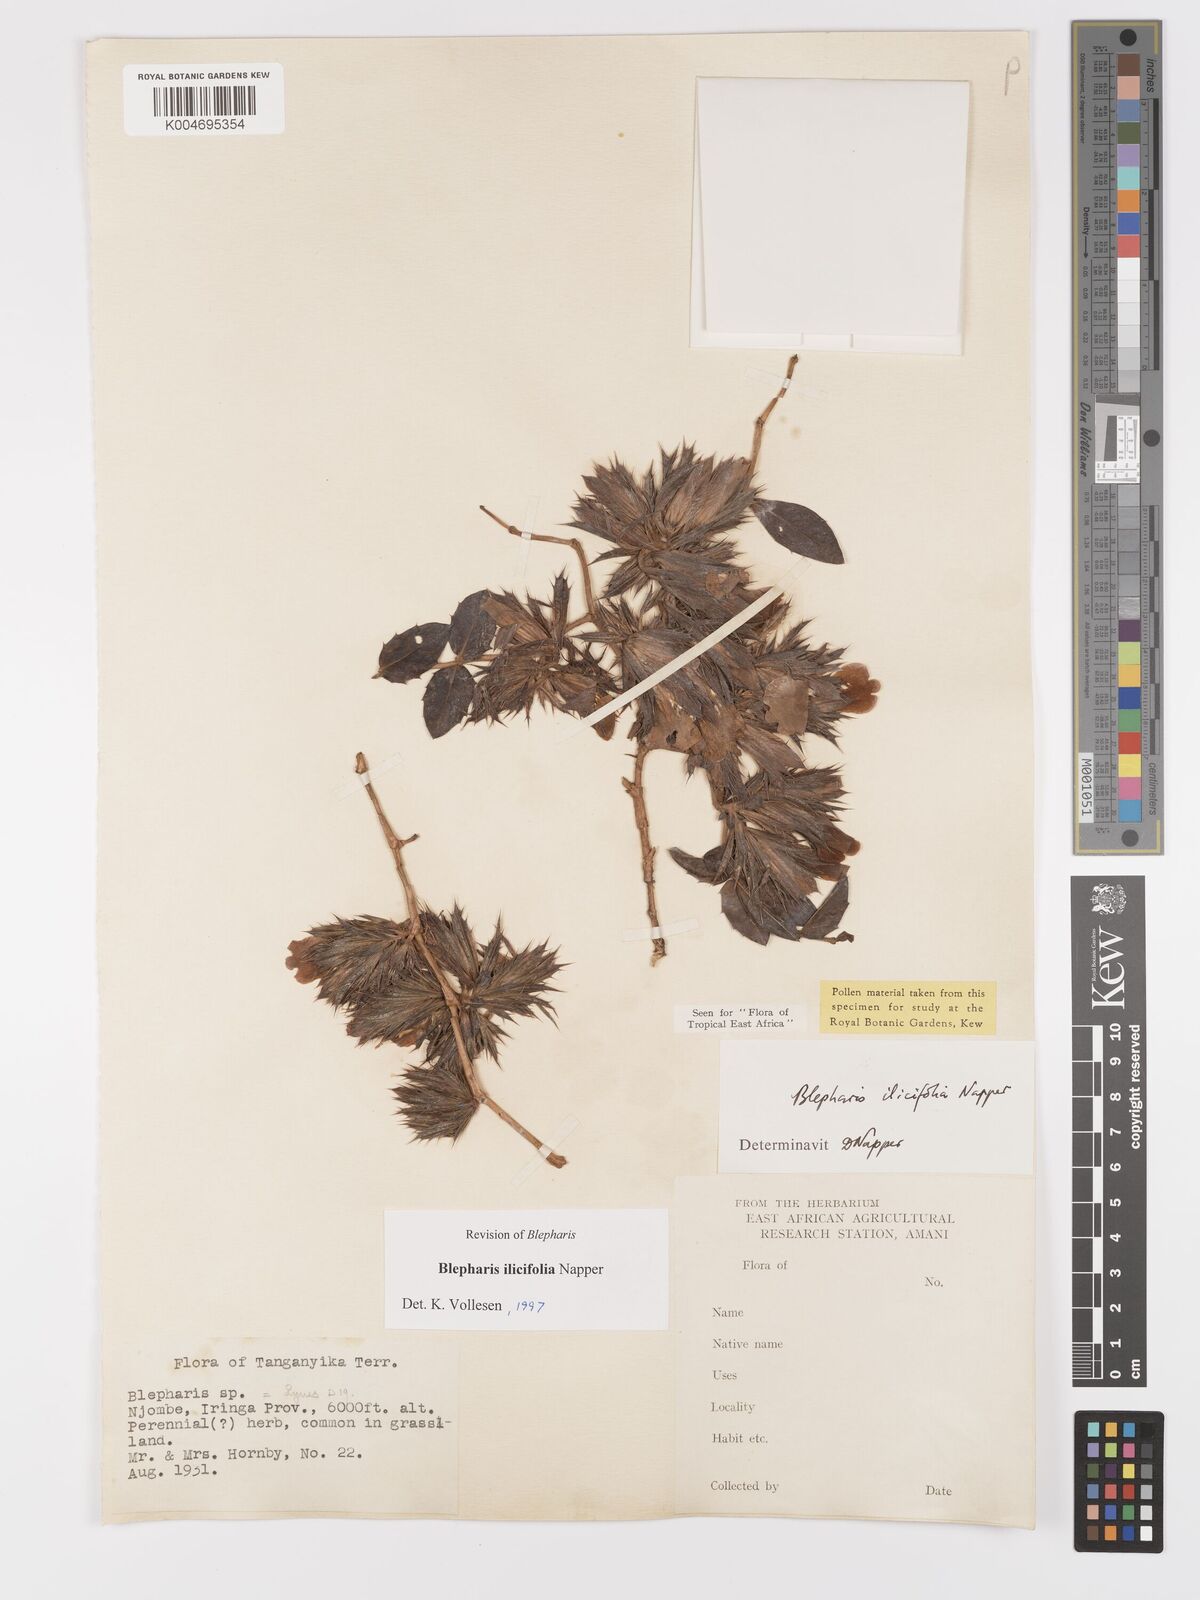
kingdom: Plantae
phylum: Tracheophyta
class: Magnoliopsida
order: Lamiales
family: Acanthaceae
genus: Blepharis
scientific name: Blepharis ilicifolia
